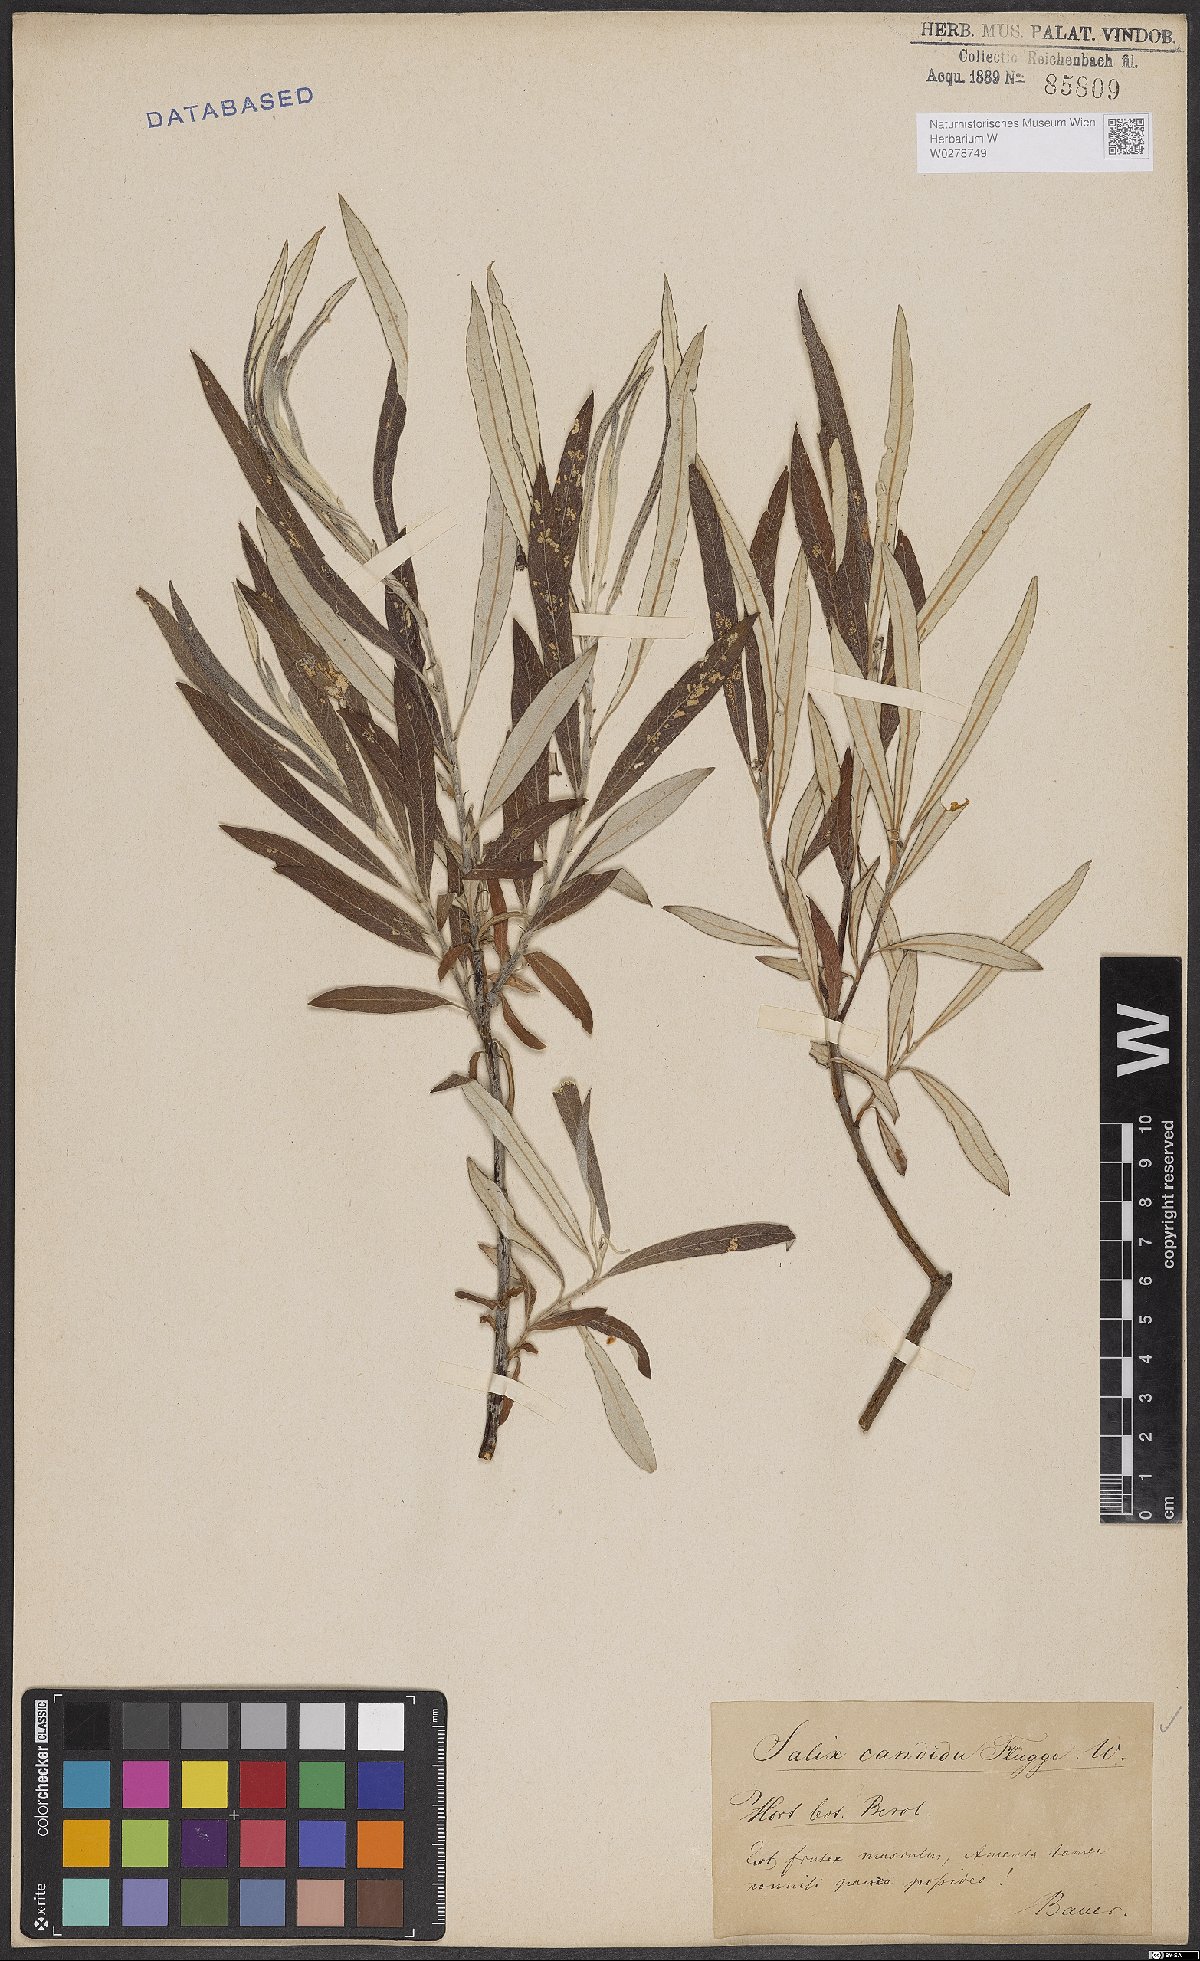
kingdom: Plantae
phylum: Tracheophyta
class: Magnoliopsida
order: Malpighiales
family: Salicaceae
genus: Salix
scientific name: Salix candida
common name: Hoary willow
